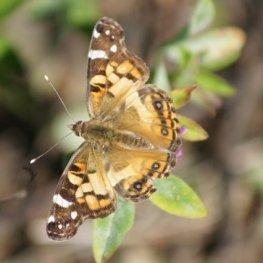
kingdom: Animalia
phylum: Arthropoda
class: Insecta
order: Lepidoptera
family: Nymphalidae
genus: Vanessa
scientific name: Vanessa virginiensis
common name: American Lady
